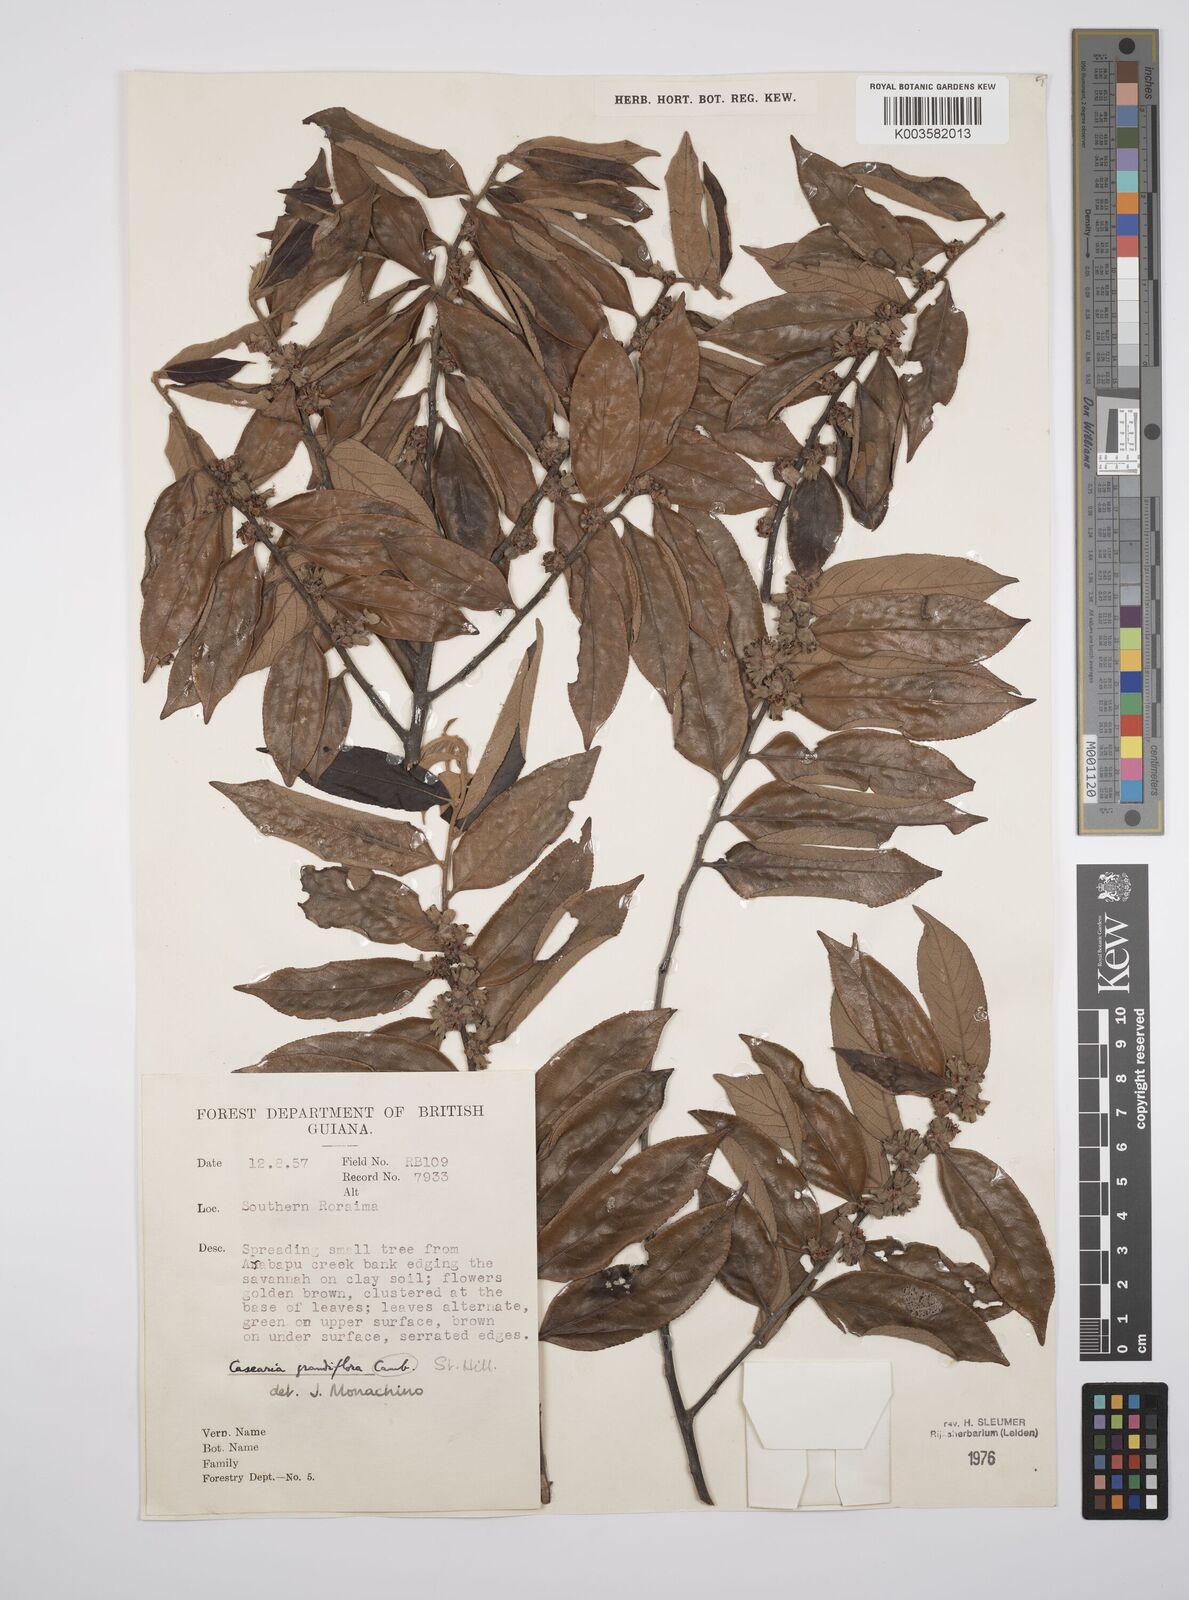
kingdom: Plantae
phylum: Tracheophyta
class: Magnoliopsida
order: Malpighiales
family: Salicaceae
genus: Casearia
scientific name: Casearia grandiflora
